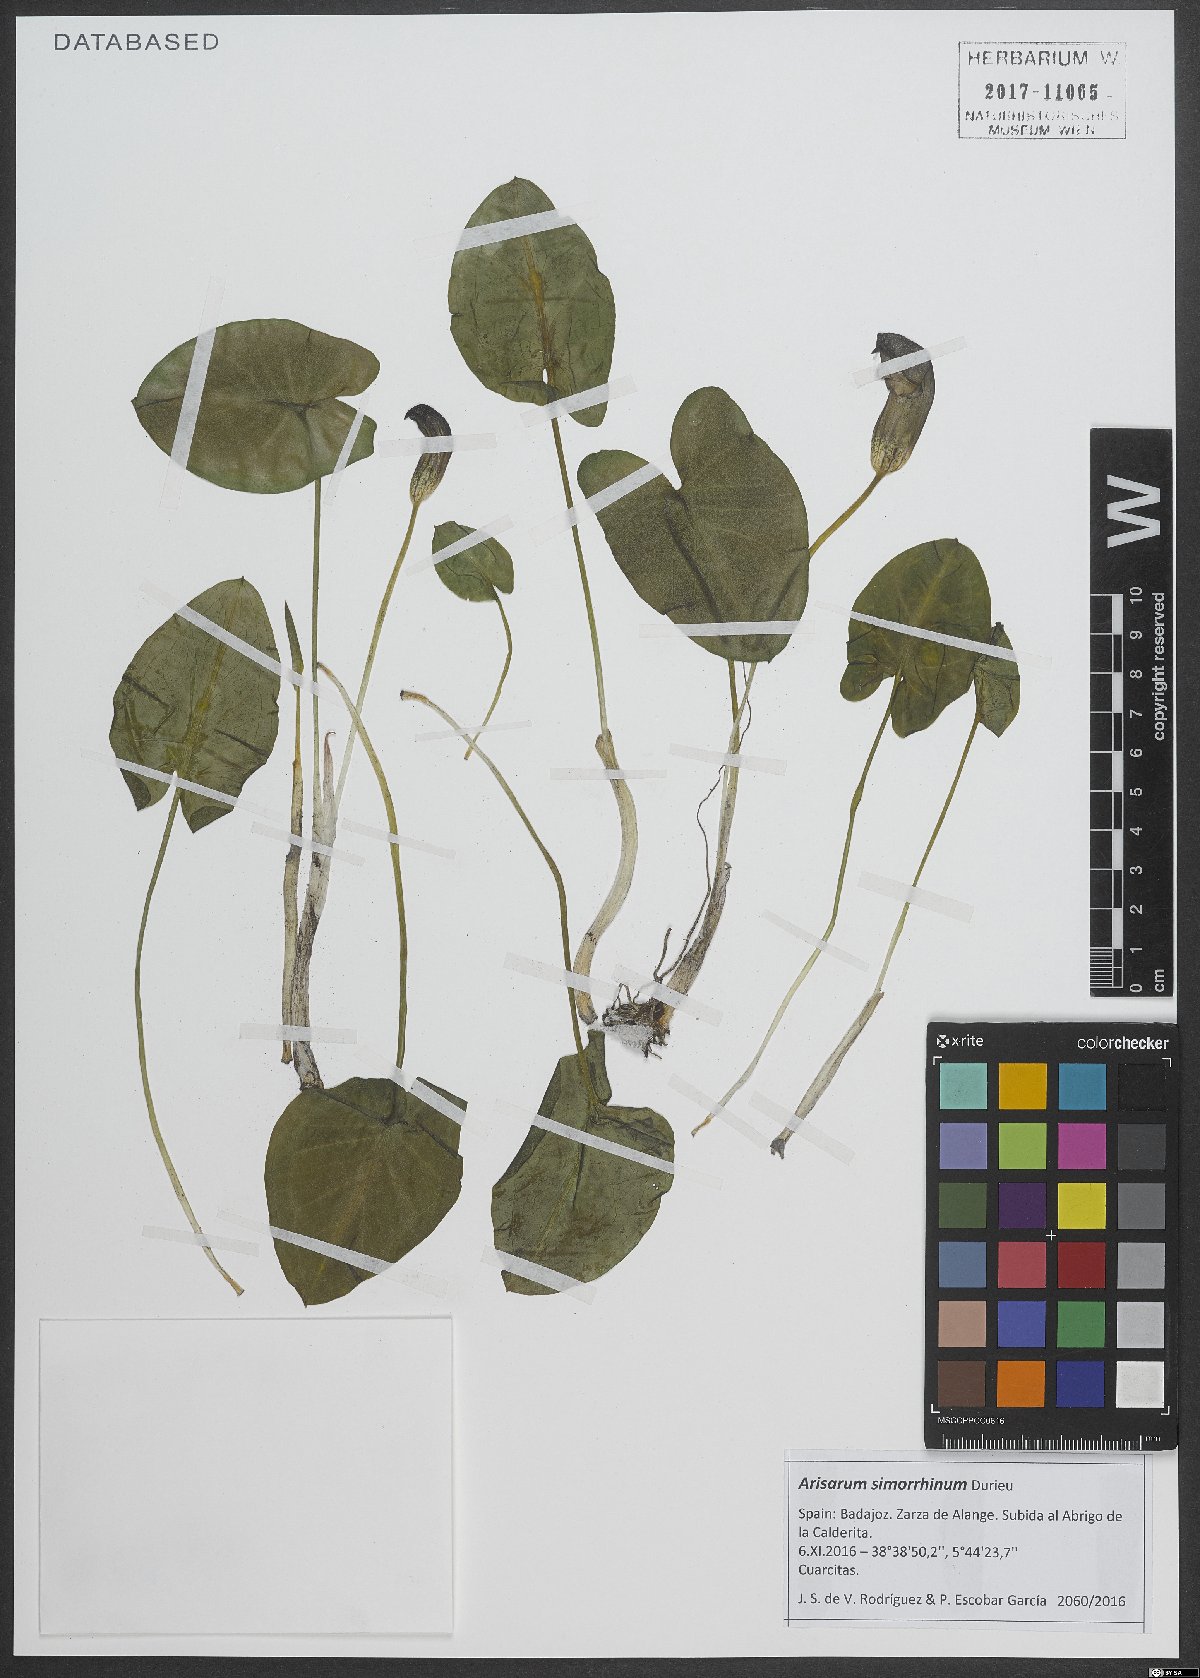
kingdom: Plantae
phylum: Tracheophyta
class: Liliopsida
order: Alismatales
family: Araceae
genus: Arisarum
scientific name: Arisarum simorrhinum
